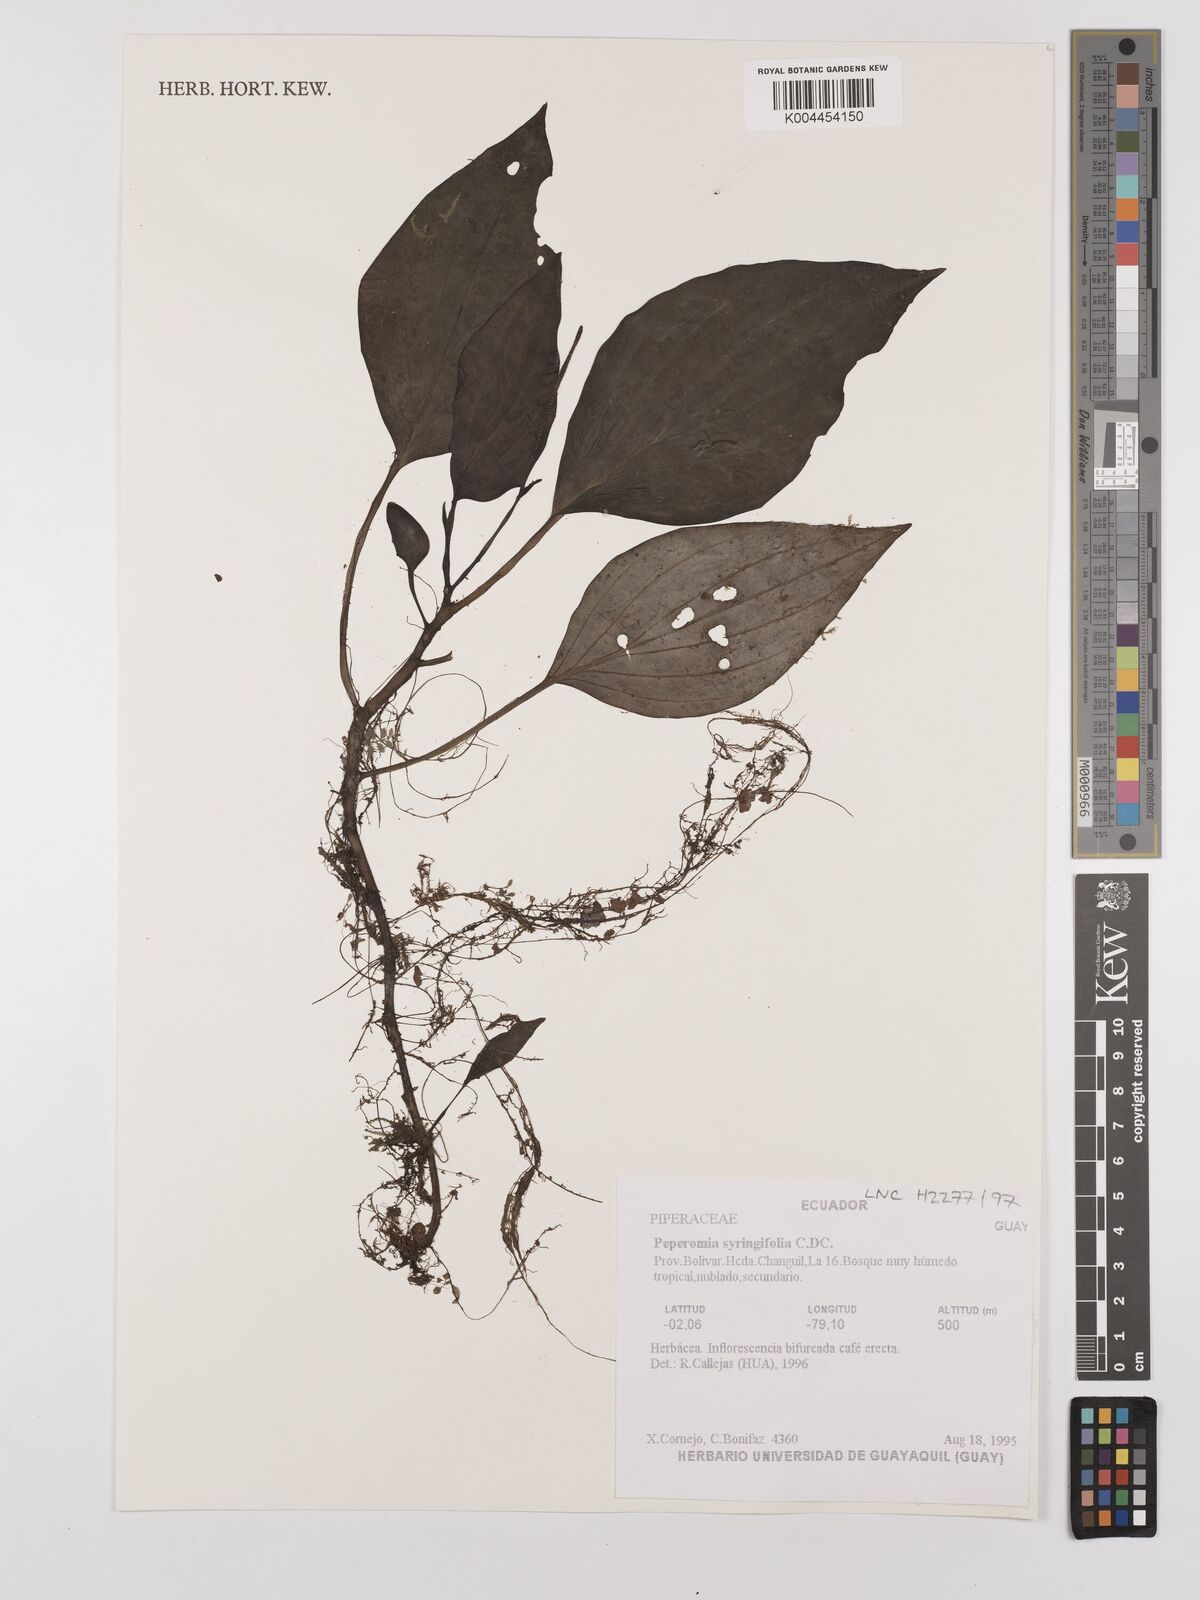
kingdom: Plantae
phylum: Tracheophyta
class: Magnoliopsida
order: Piperales
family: Piperaceae
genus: Peperomia
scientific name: Peperomia syringifolia
